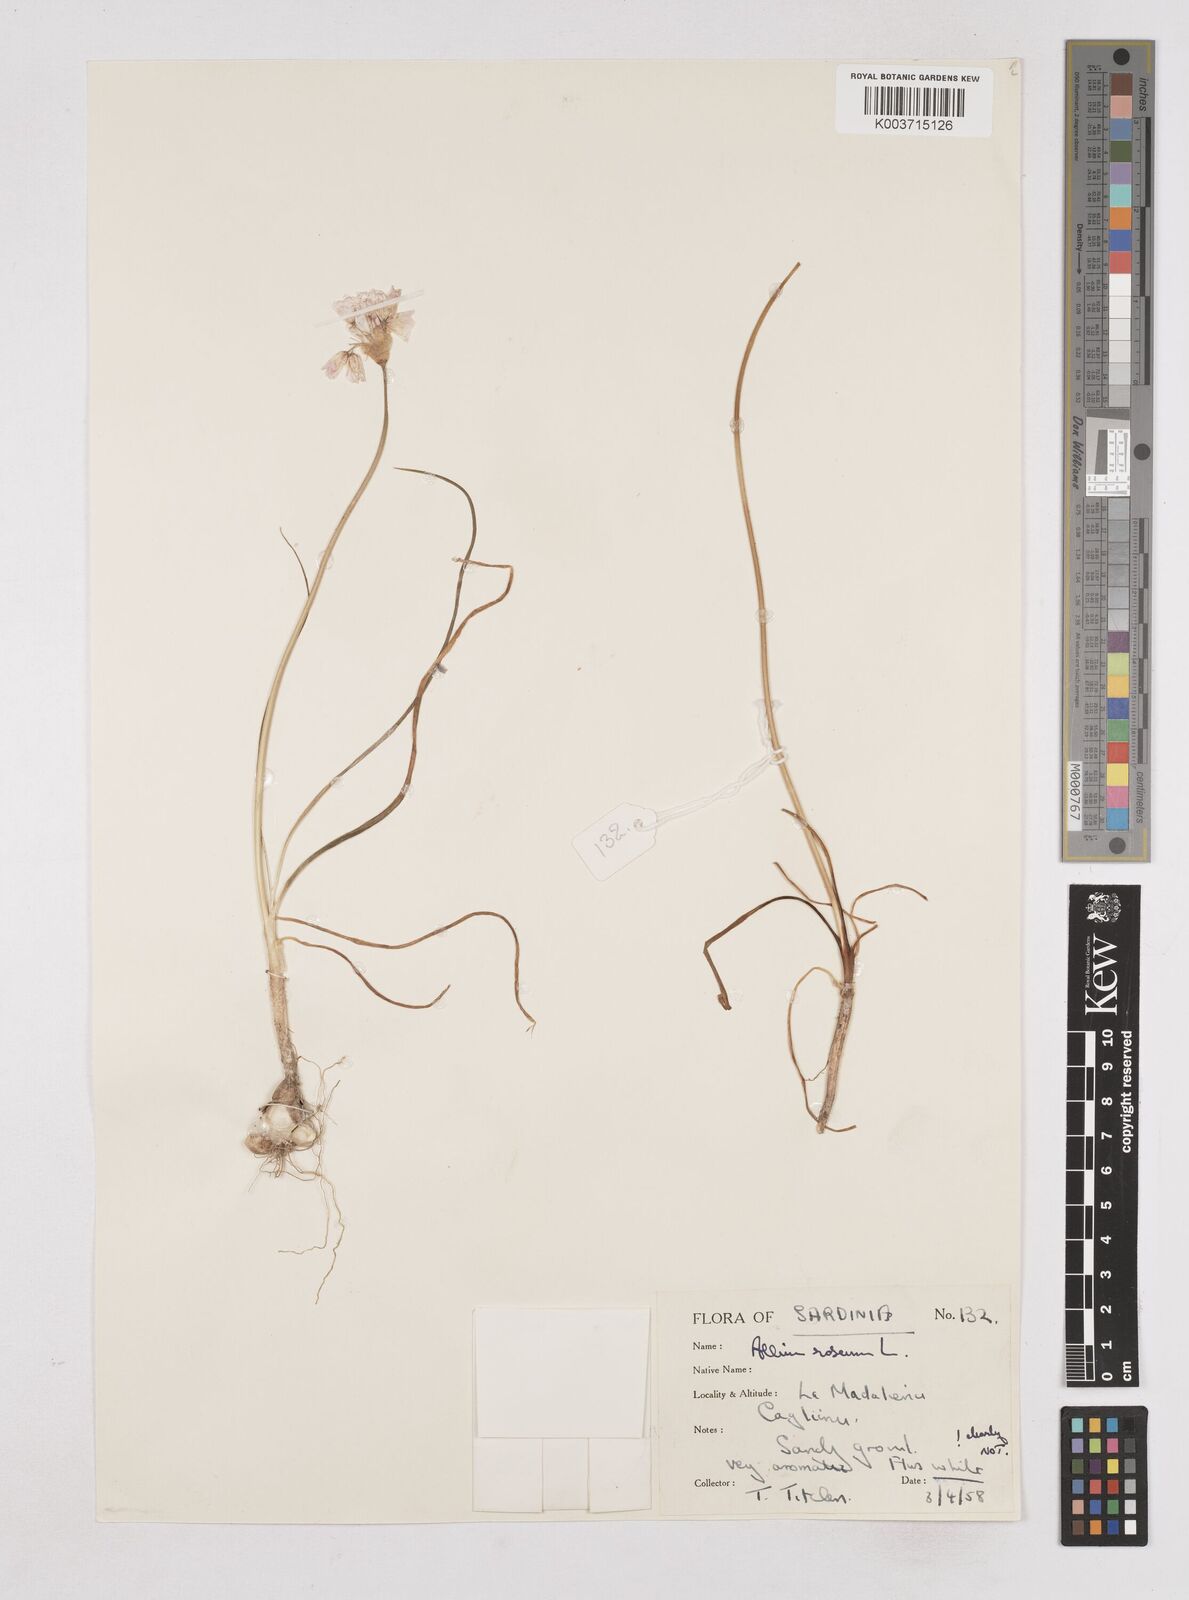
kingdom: Plantae
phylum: Tracheophyta
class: Liliopsida
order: Asparagales
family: Amaryllidaceae
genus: Allium
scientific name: Allium roseum
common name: Rosy garlic
